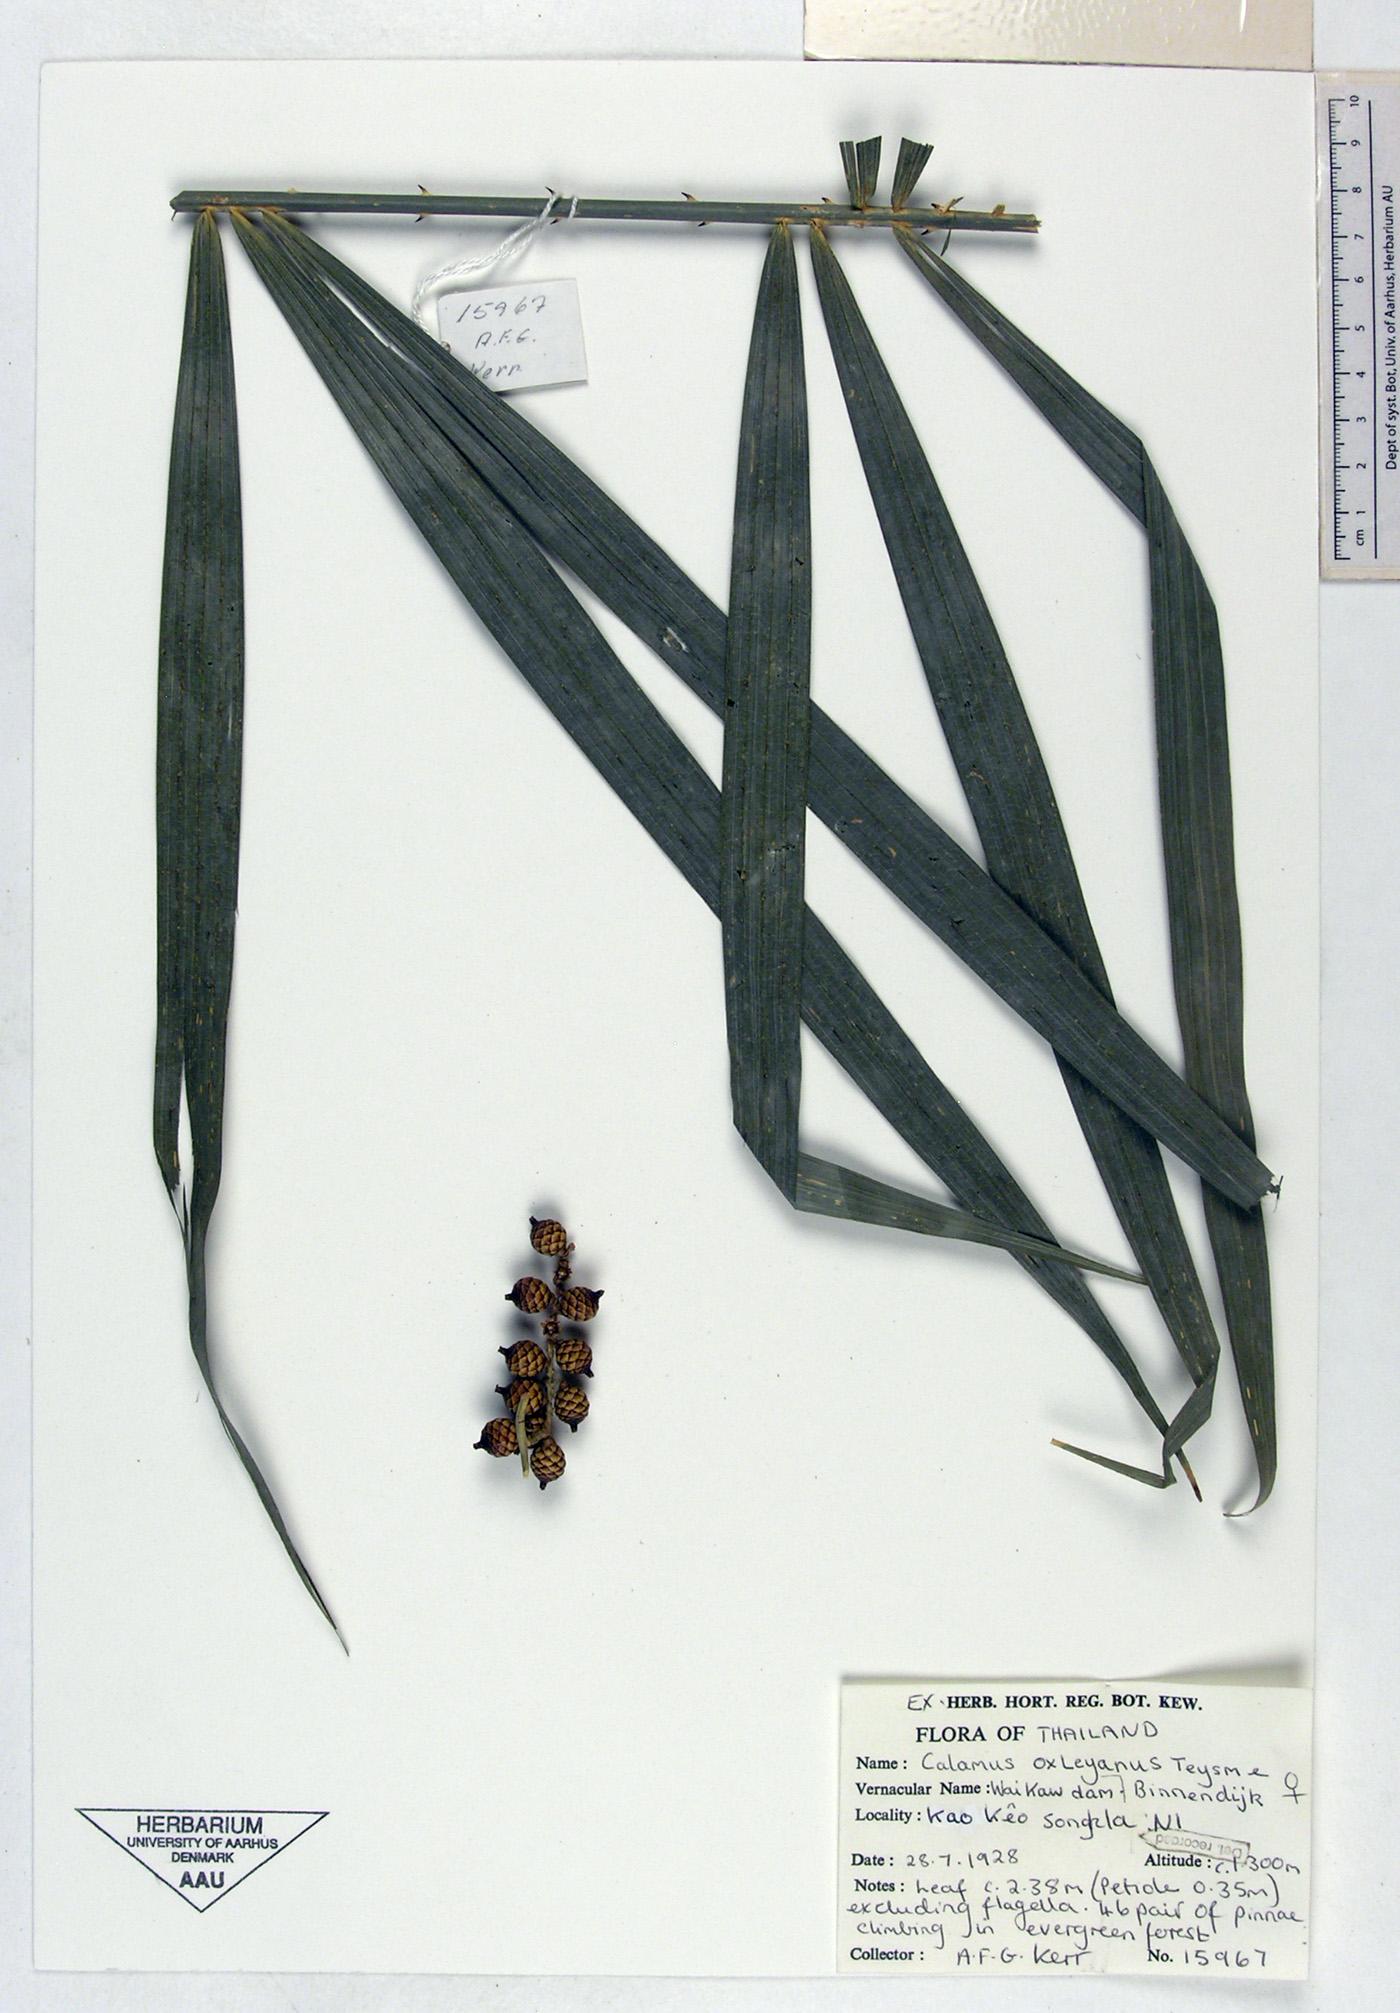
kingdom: Plantae
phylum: Tracheophyta
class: Liliopsida
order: Arecales
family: Arecaceae
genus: Calamus
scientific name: Calamus oxleyanus
